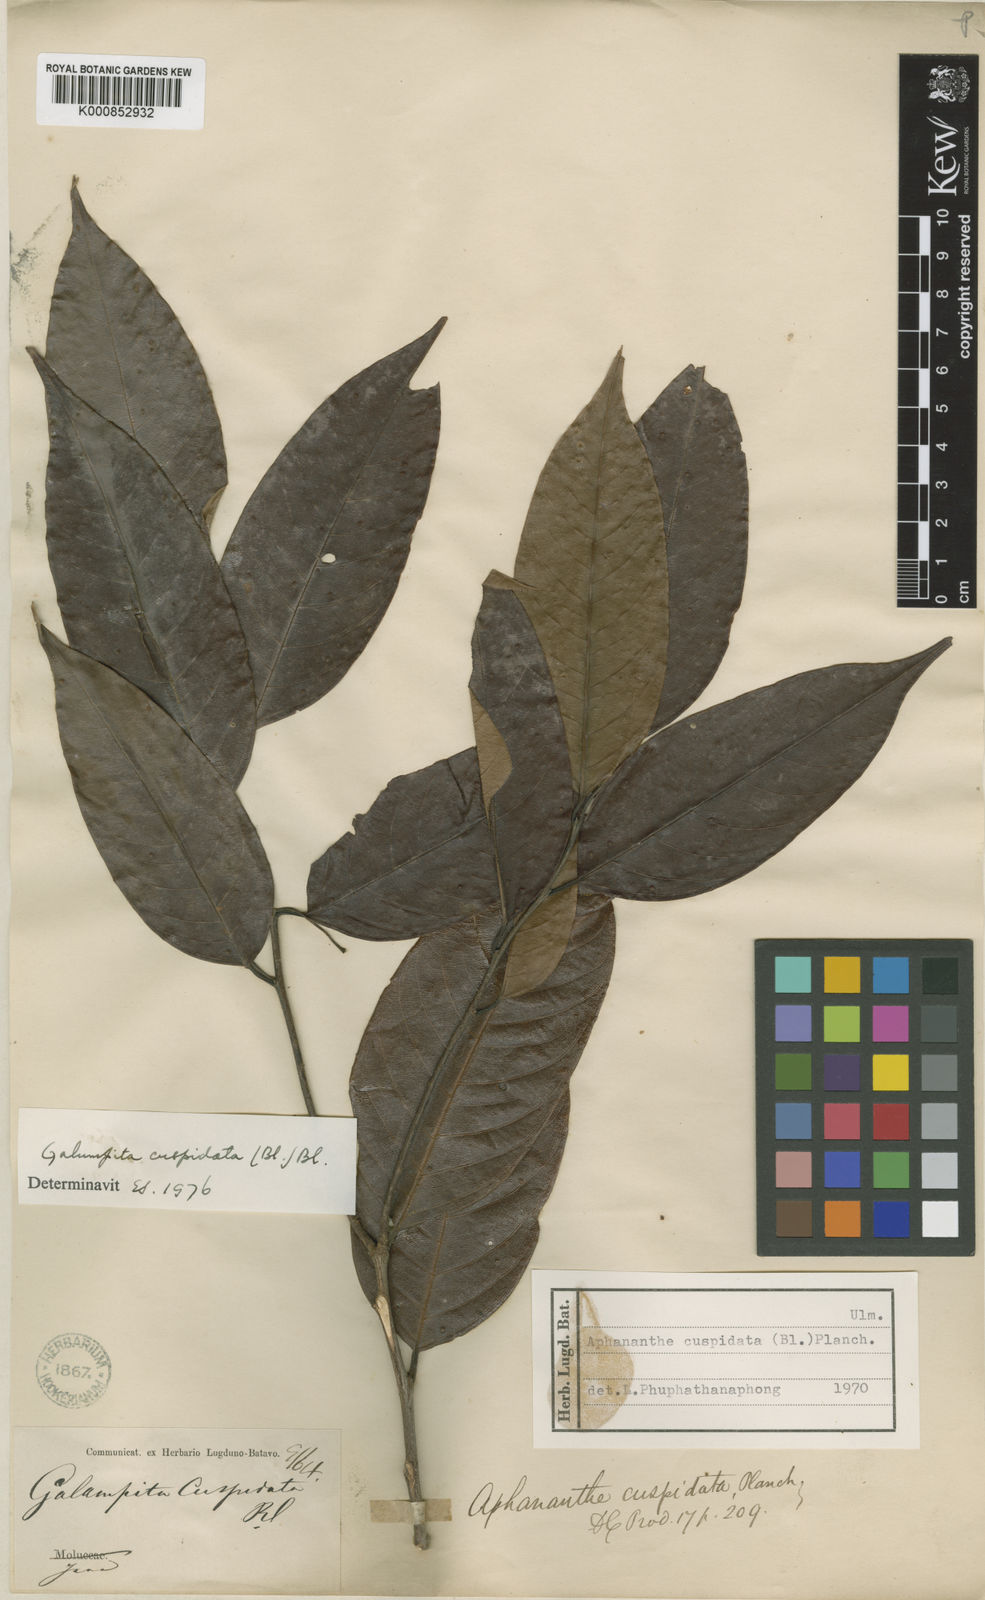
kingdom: Plantae
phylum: Tracheophyta
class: Magnoliopsida
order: Rosales
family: Cannabaceae
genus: Aphananthe
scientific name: Aphananthe cuspidata
